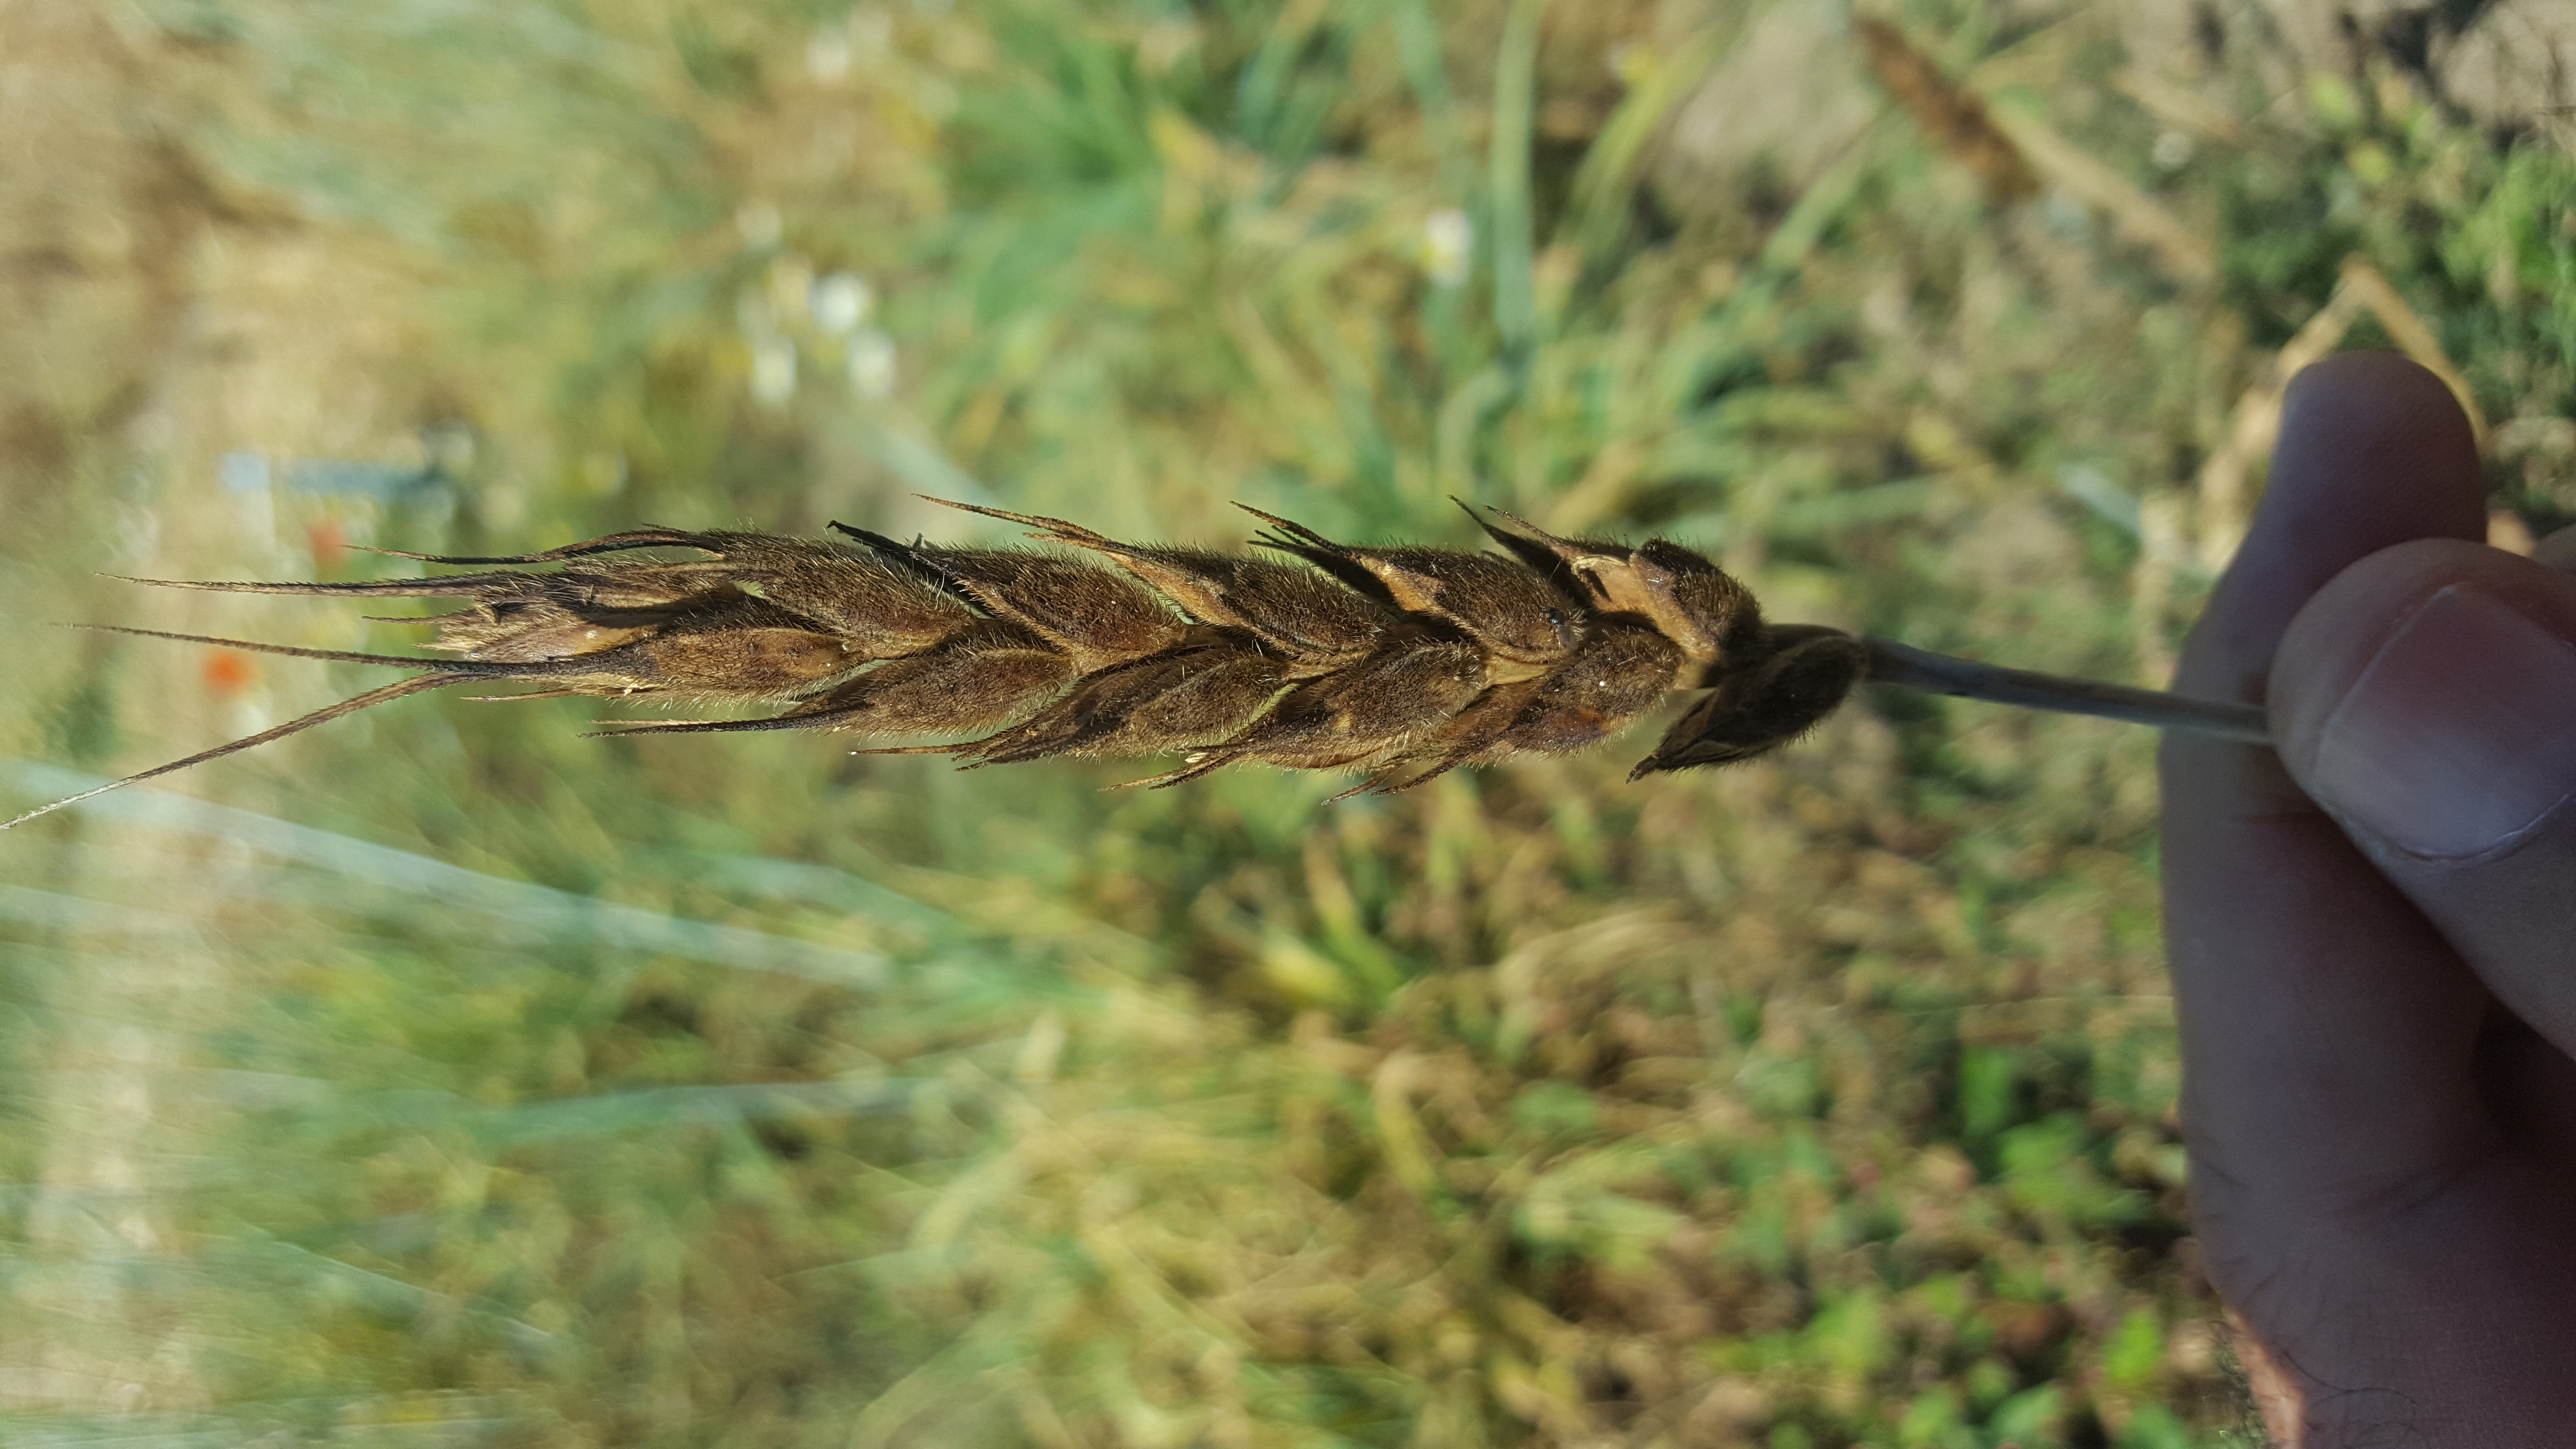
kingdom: Plantae
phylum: Tracheophyta
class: Liliopsida
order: Poales
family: Poaceae
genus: Triticum
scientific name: Triticum aestivum
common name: Common wheat
